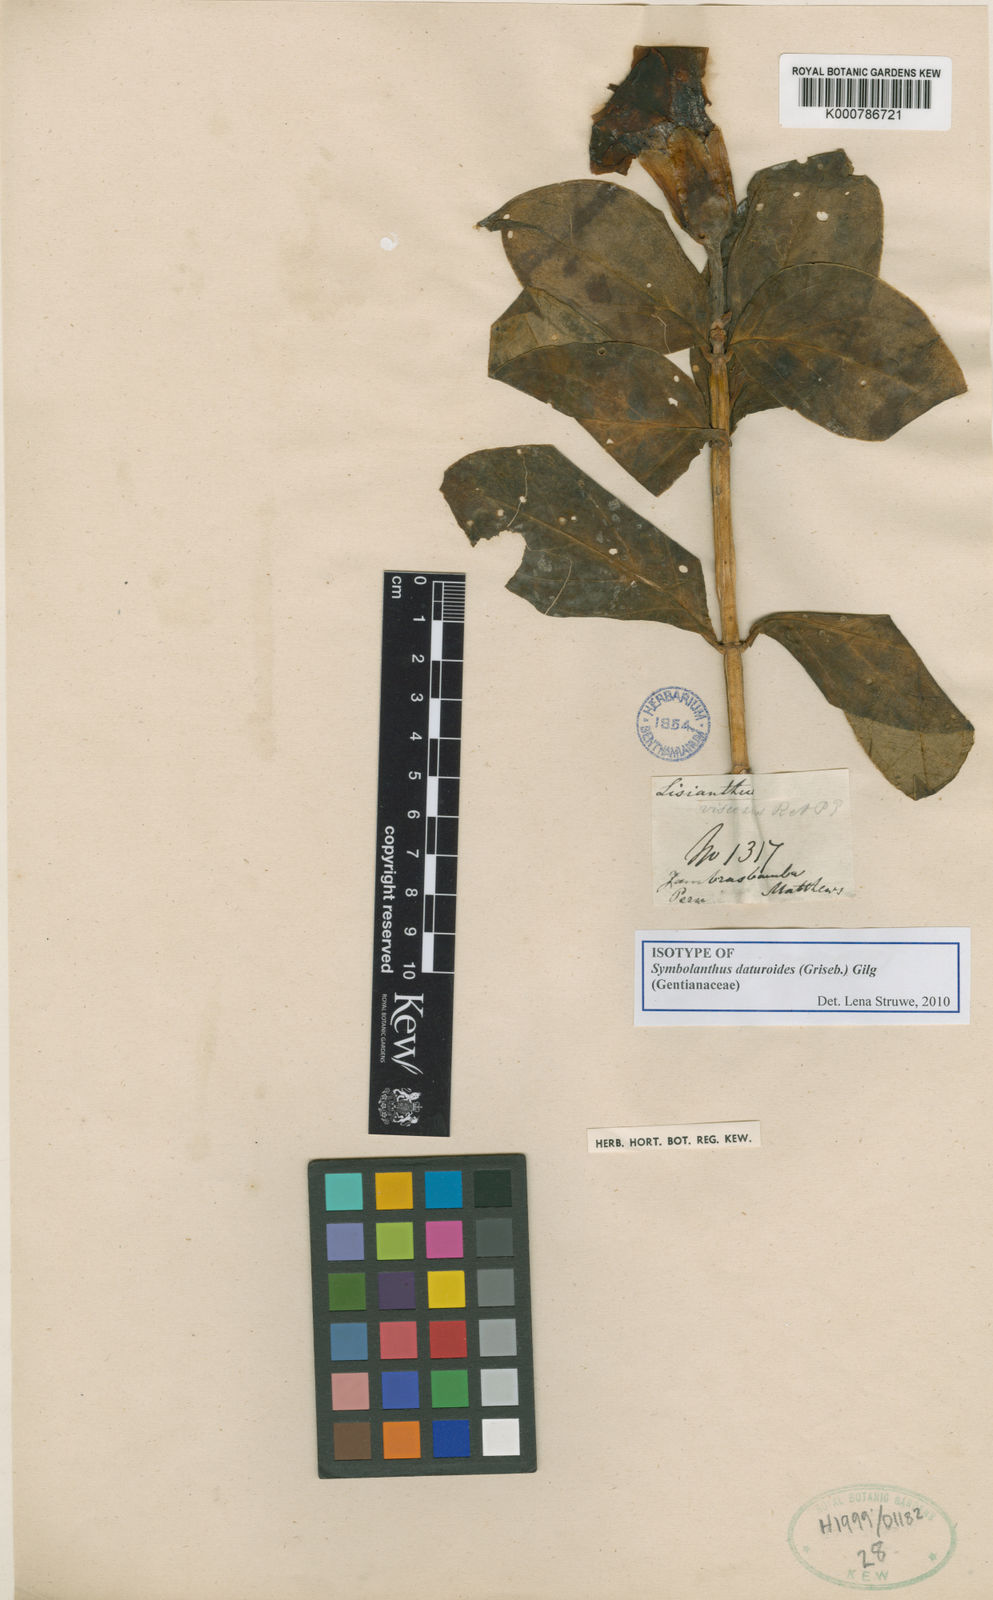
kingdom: Plantae
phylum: Tracheophyta
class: Magnoliopsida
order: Gentianales
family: Gentianaceae
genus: Symbolanthus
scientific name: Symbolanthus daturoides
